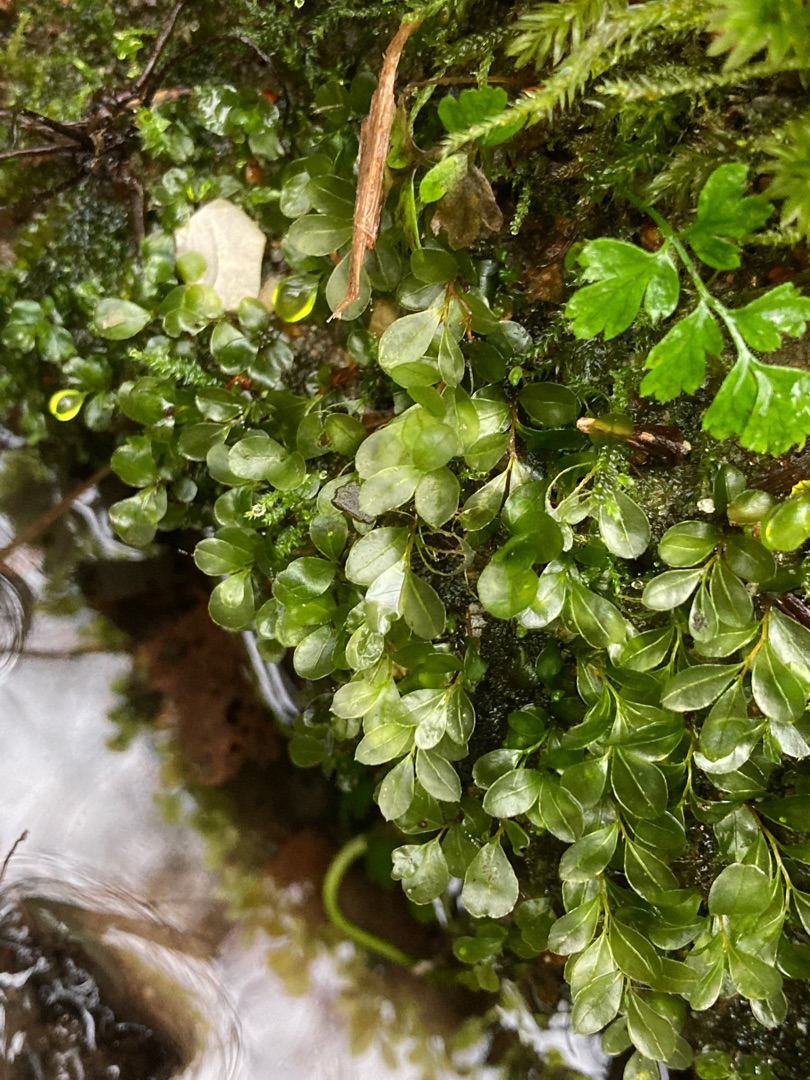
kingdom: Plantae
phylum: Bryophyta
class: Bryopsida
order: Bryales
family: Mniaceae
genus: Rhizomnium
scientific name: Rhizomnium punctatum
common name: Almindelig bredblad
